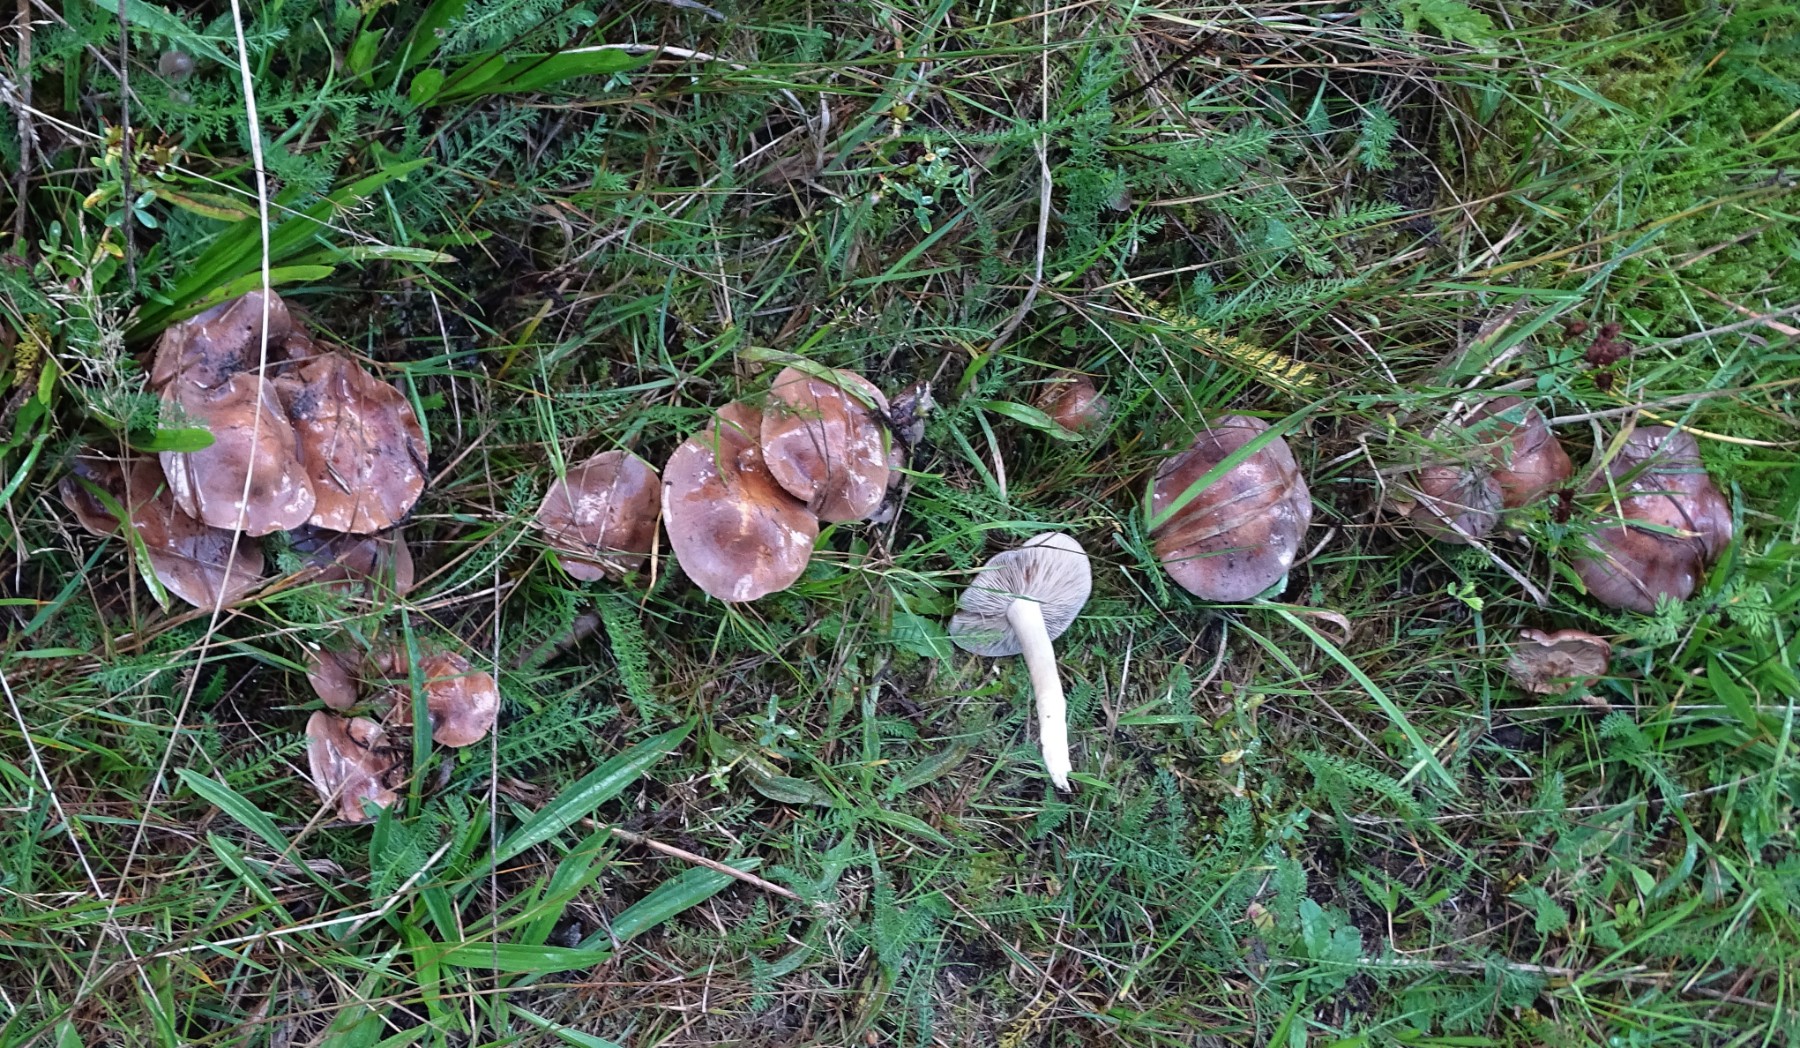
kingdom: Fungi
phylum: Basidiomycota
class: Agaricomycetes
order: Agaricales
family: Hymenogastraceae
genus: Hebeloma
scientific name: Hebeloma theobrominum
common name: rødbrun tåreblad
